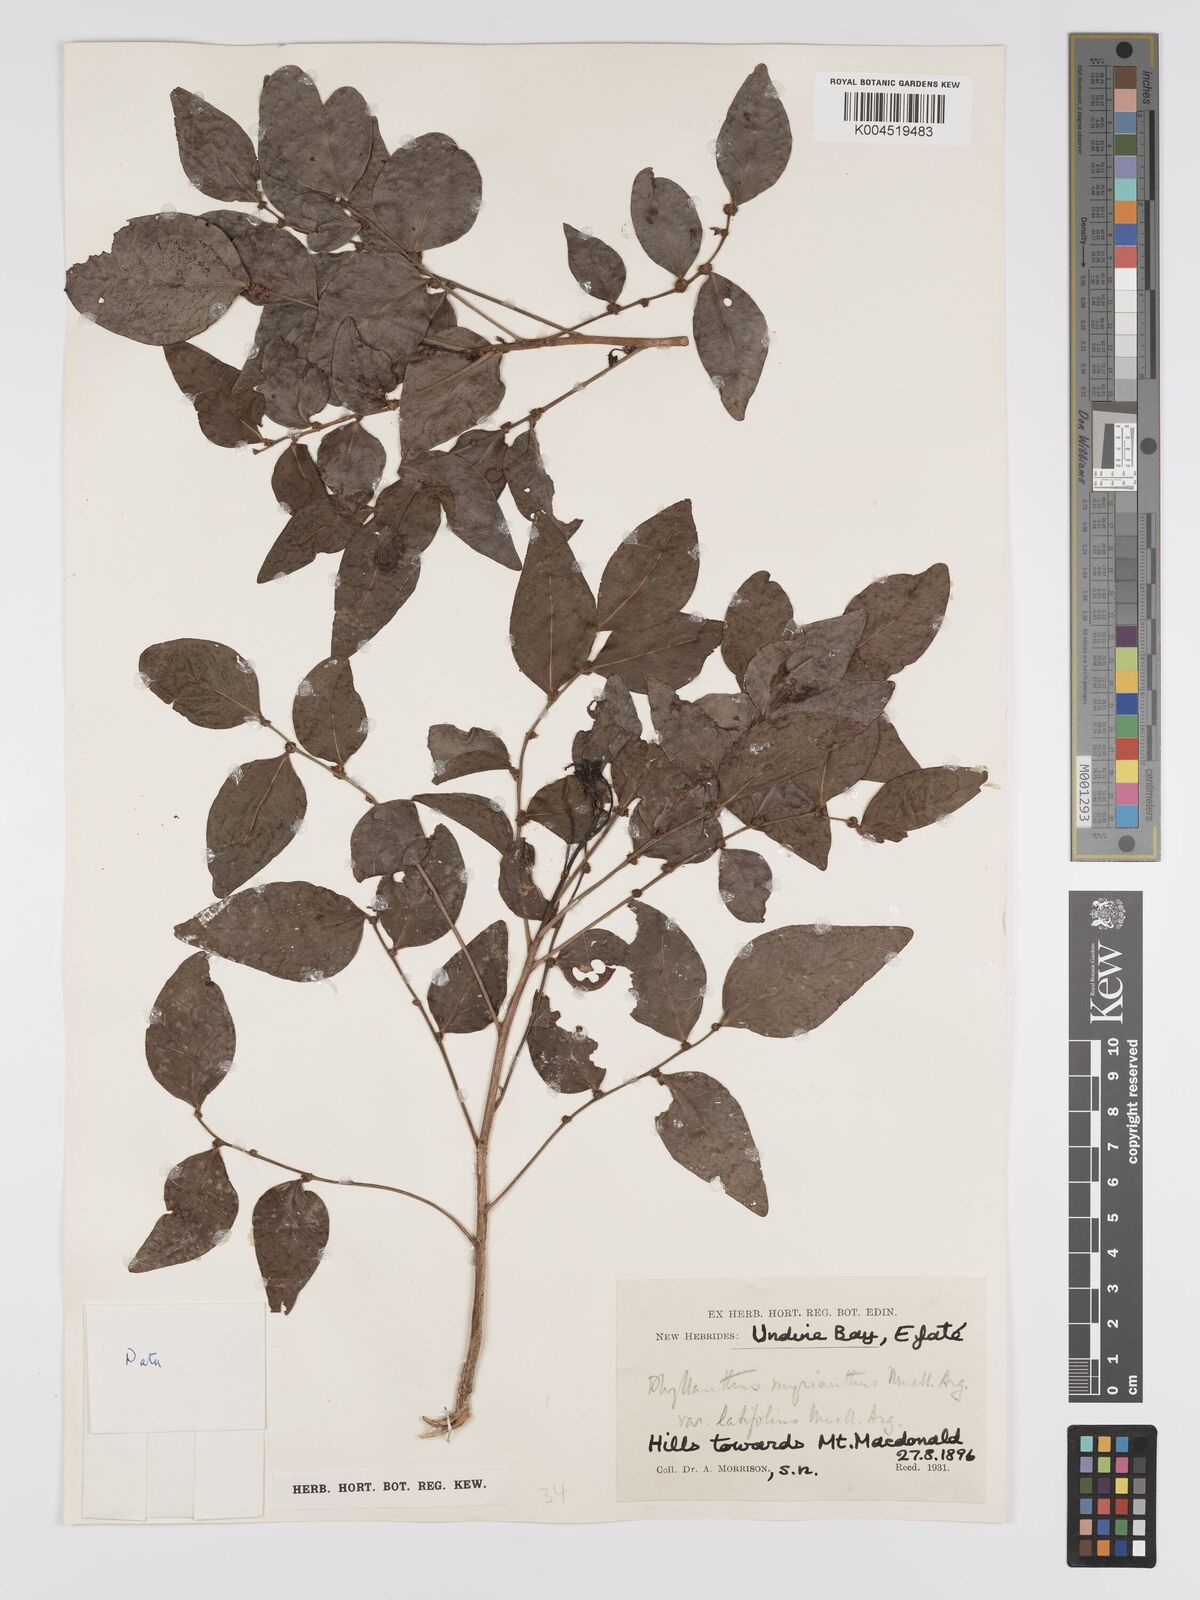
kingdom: Plantae
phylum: Tracheophyta
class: Magnoliopsida
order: Malpighiales
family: Phyllanthaceae
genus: Glochidion
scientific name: Glochidion myrianthum
